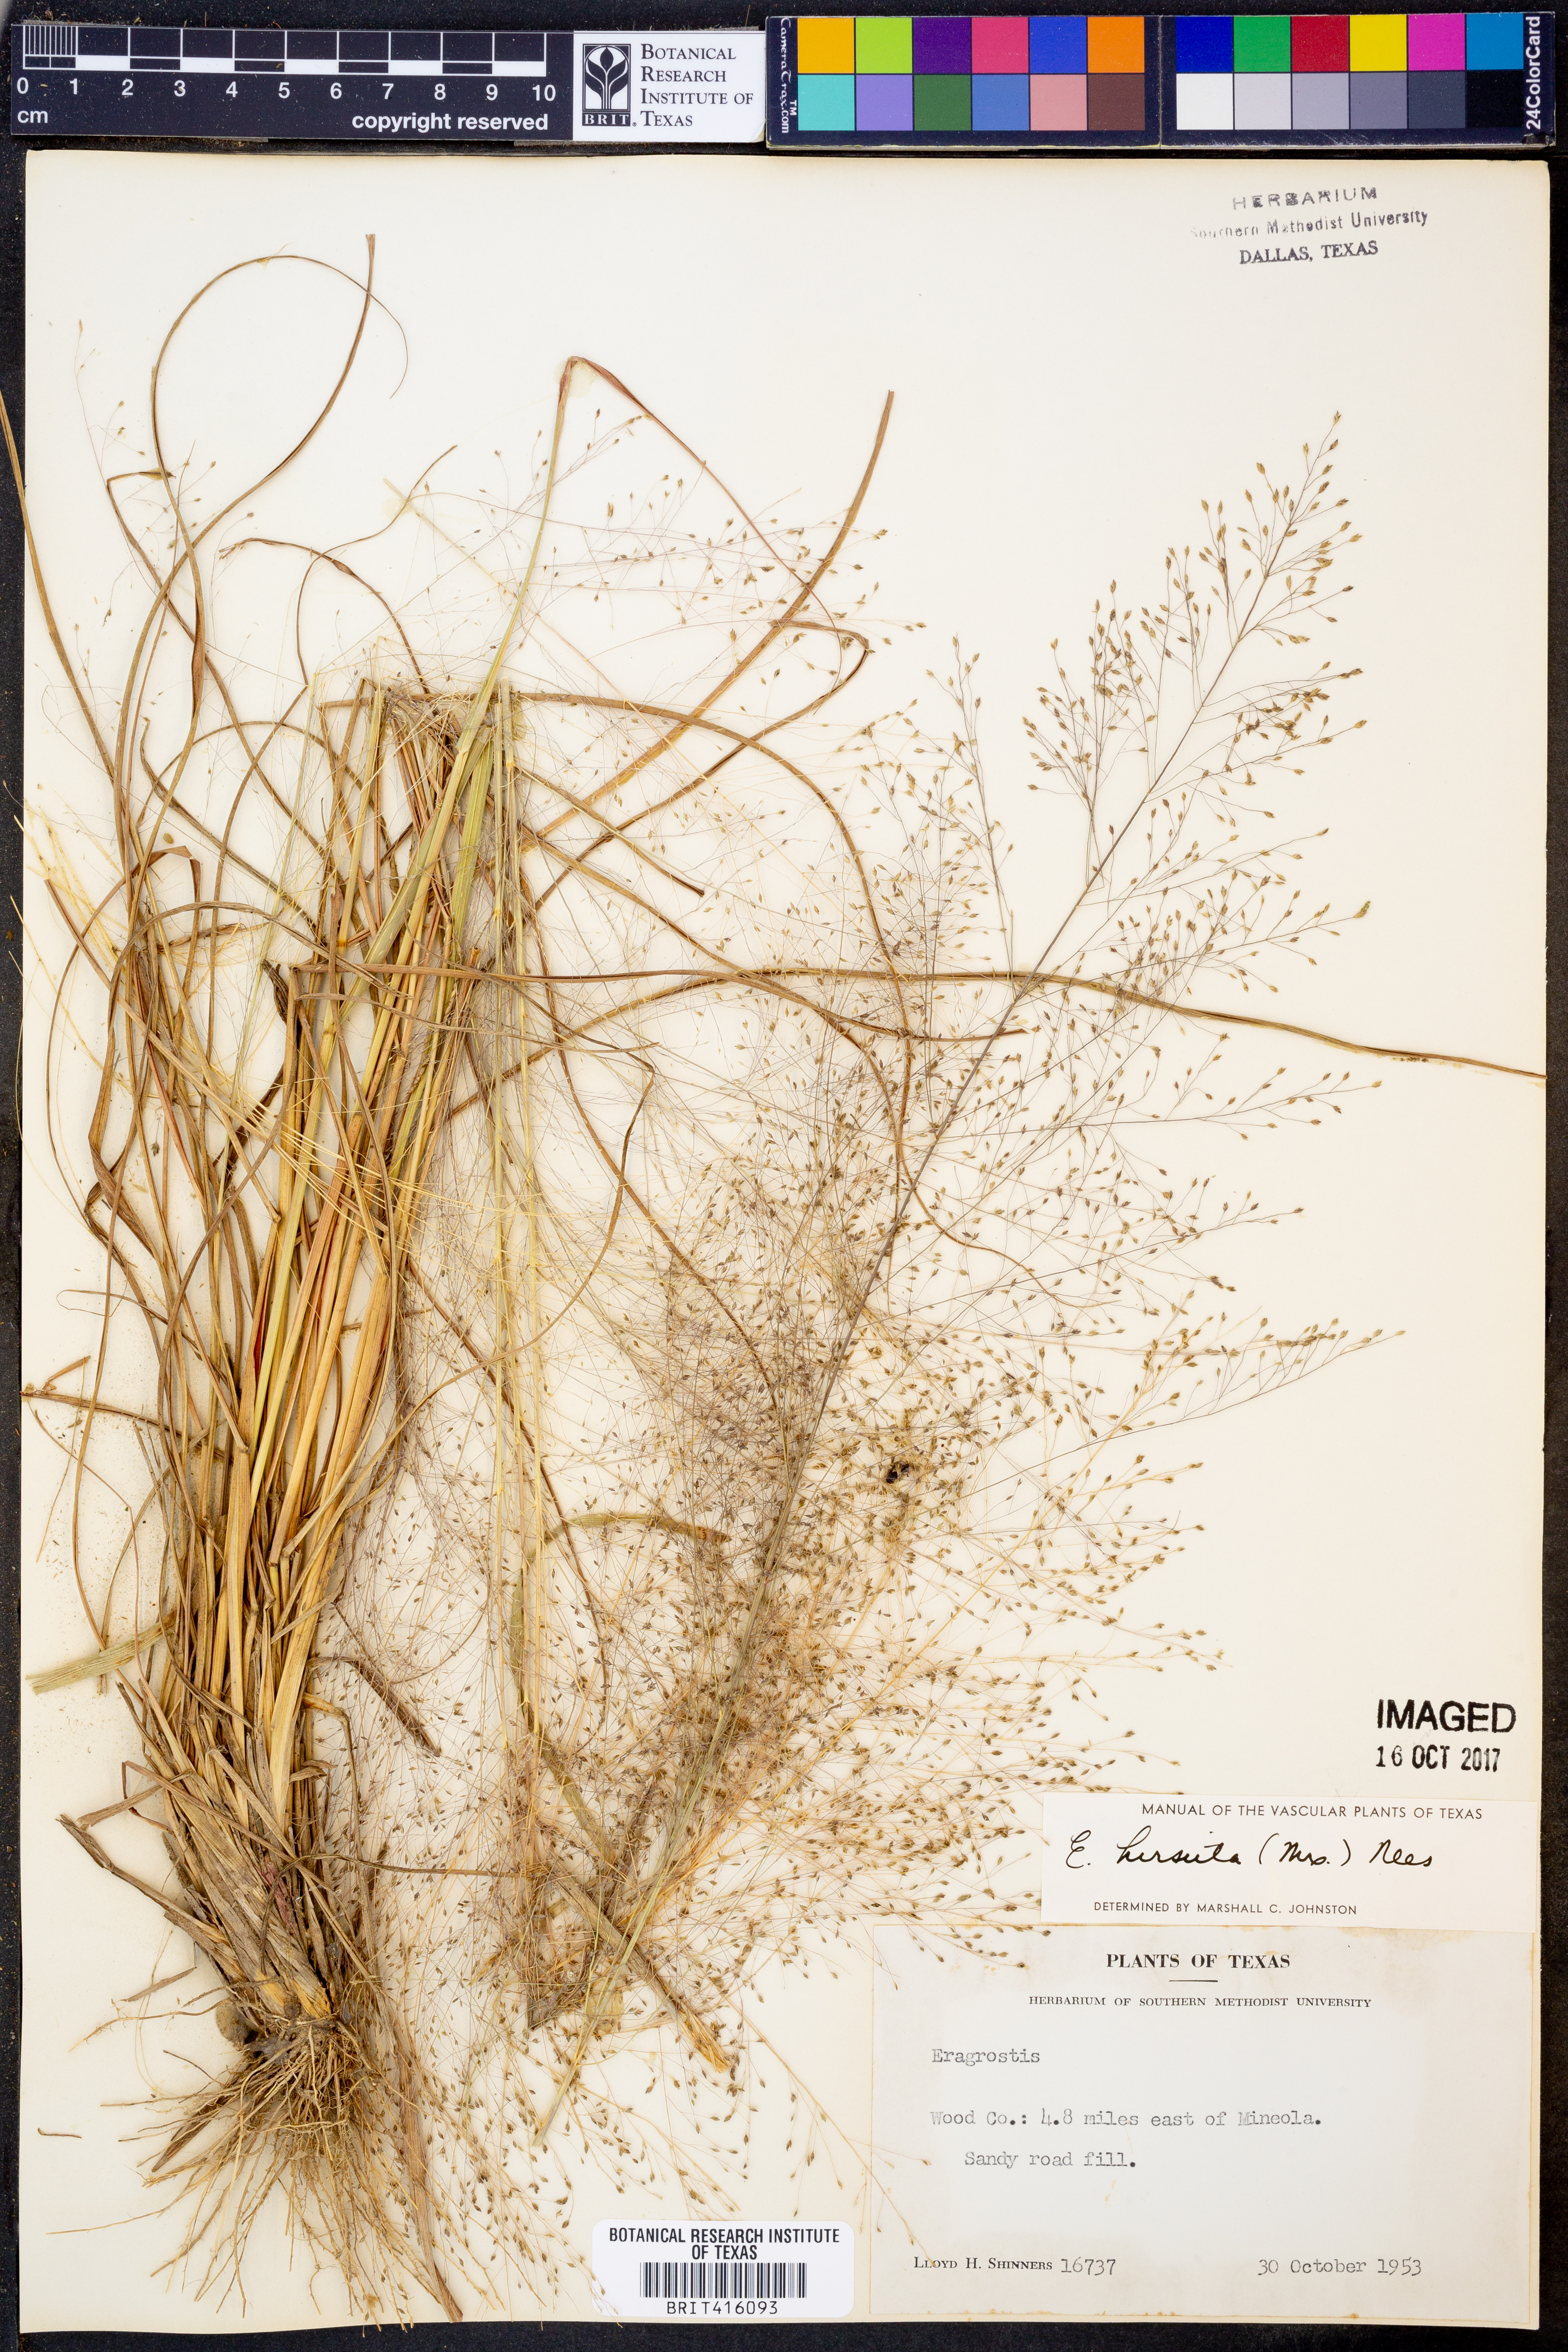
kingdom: Plantae
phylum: Tracheophyta
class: Liliopsida
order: Poales
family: Poaceae
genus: Eragrostis
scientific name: Eragrostis hirsuta
